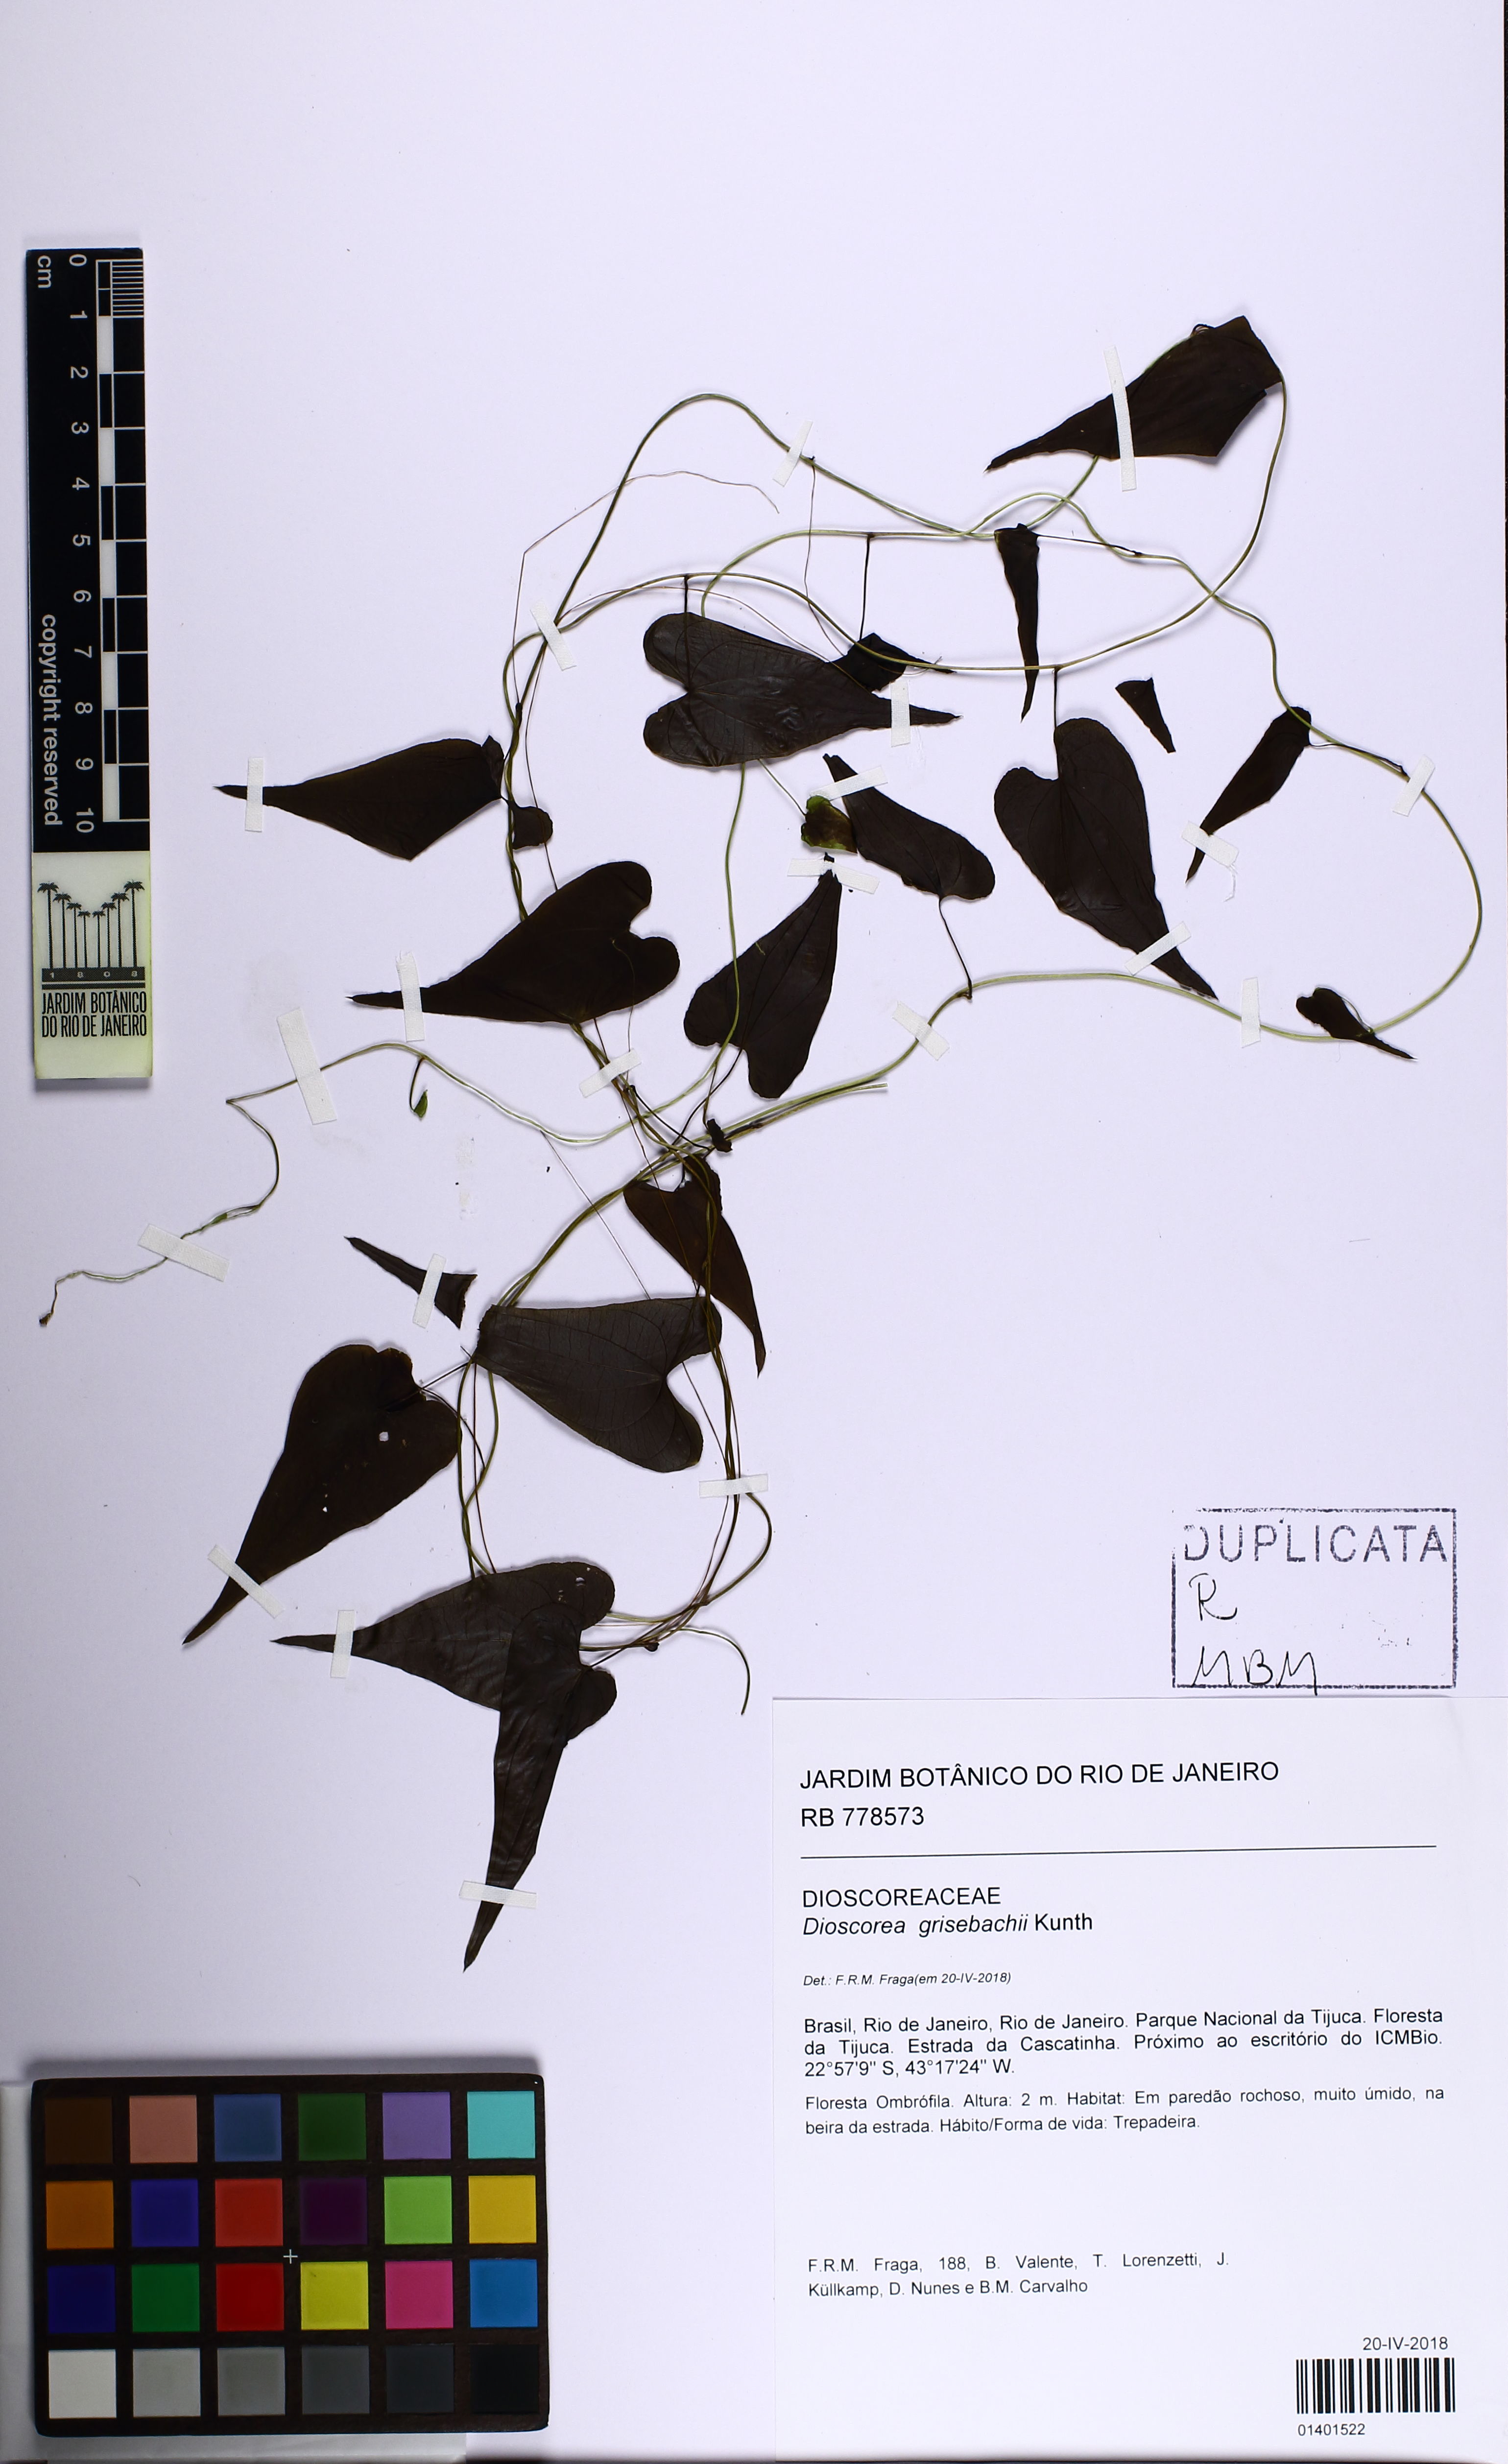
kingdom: Plantae
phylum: Tracheophyta
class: Liliopsida
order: Dioscoreales
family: Dioscoreaceae
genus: Dioscorea
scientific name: Dioscorea grisebachii
